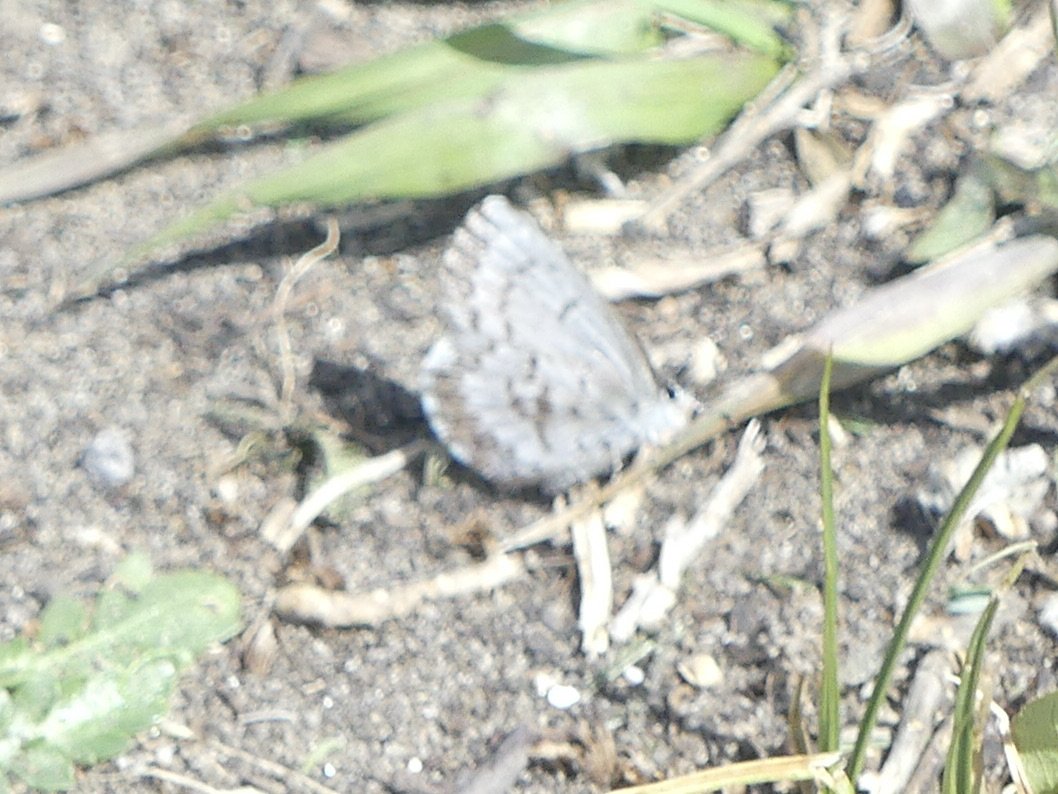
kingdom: Animalia
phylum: Arthropoda
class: Insecta
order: Lepidoptera
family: Lycaenidae
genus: Celastrina
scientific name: Celastrina lucia
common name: Northern Spring Azure
